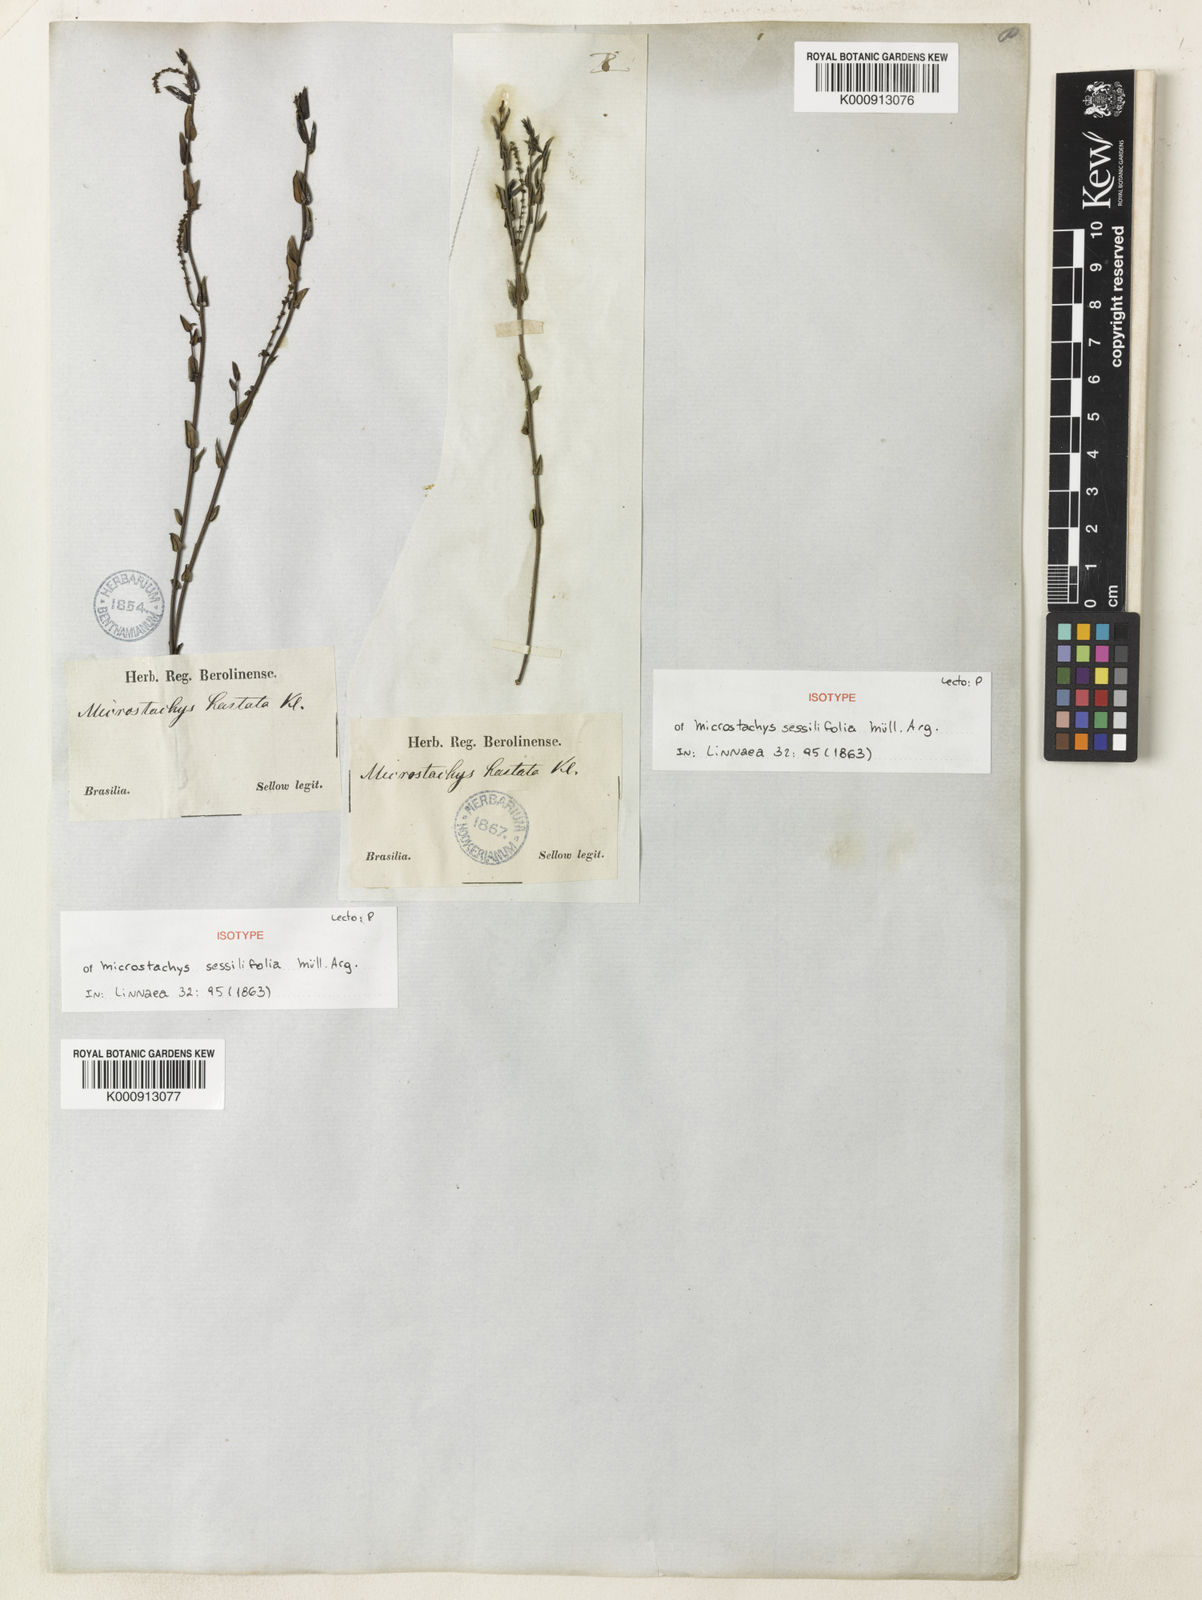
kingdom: Plantae
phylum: Tracheophyta
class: Magnoliopsida
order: Malpighiales
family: Euphorbiaceae
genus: Microstachys
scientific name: Microstachys ditassoides
